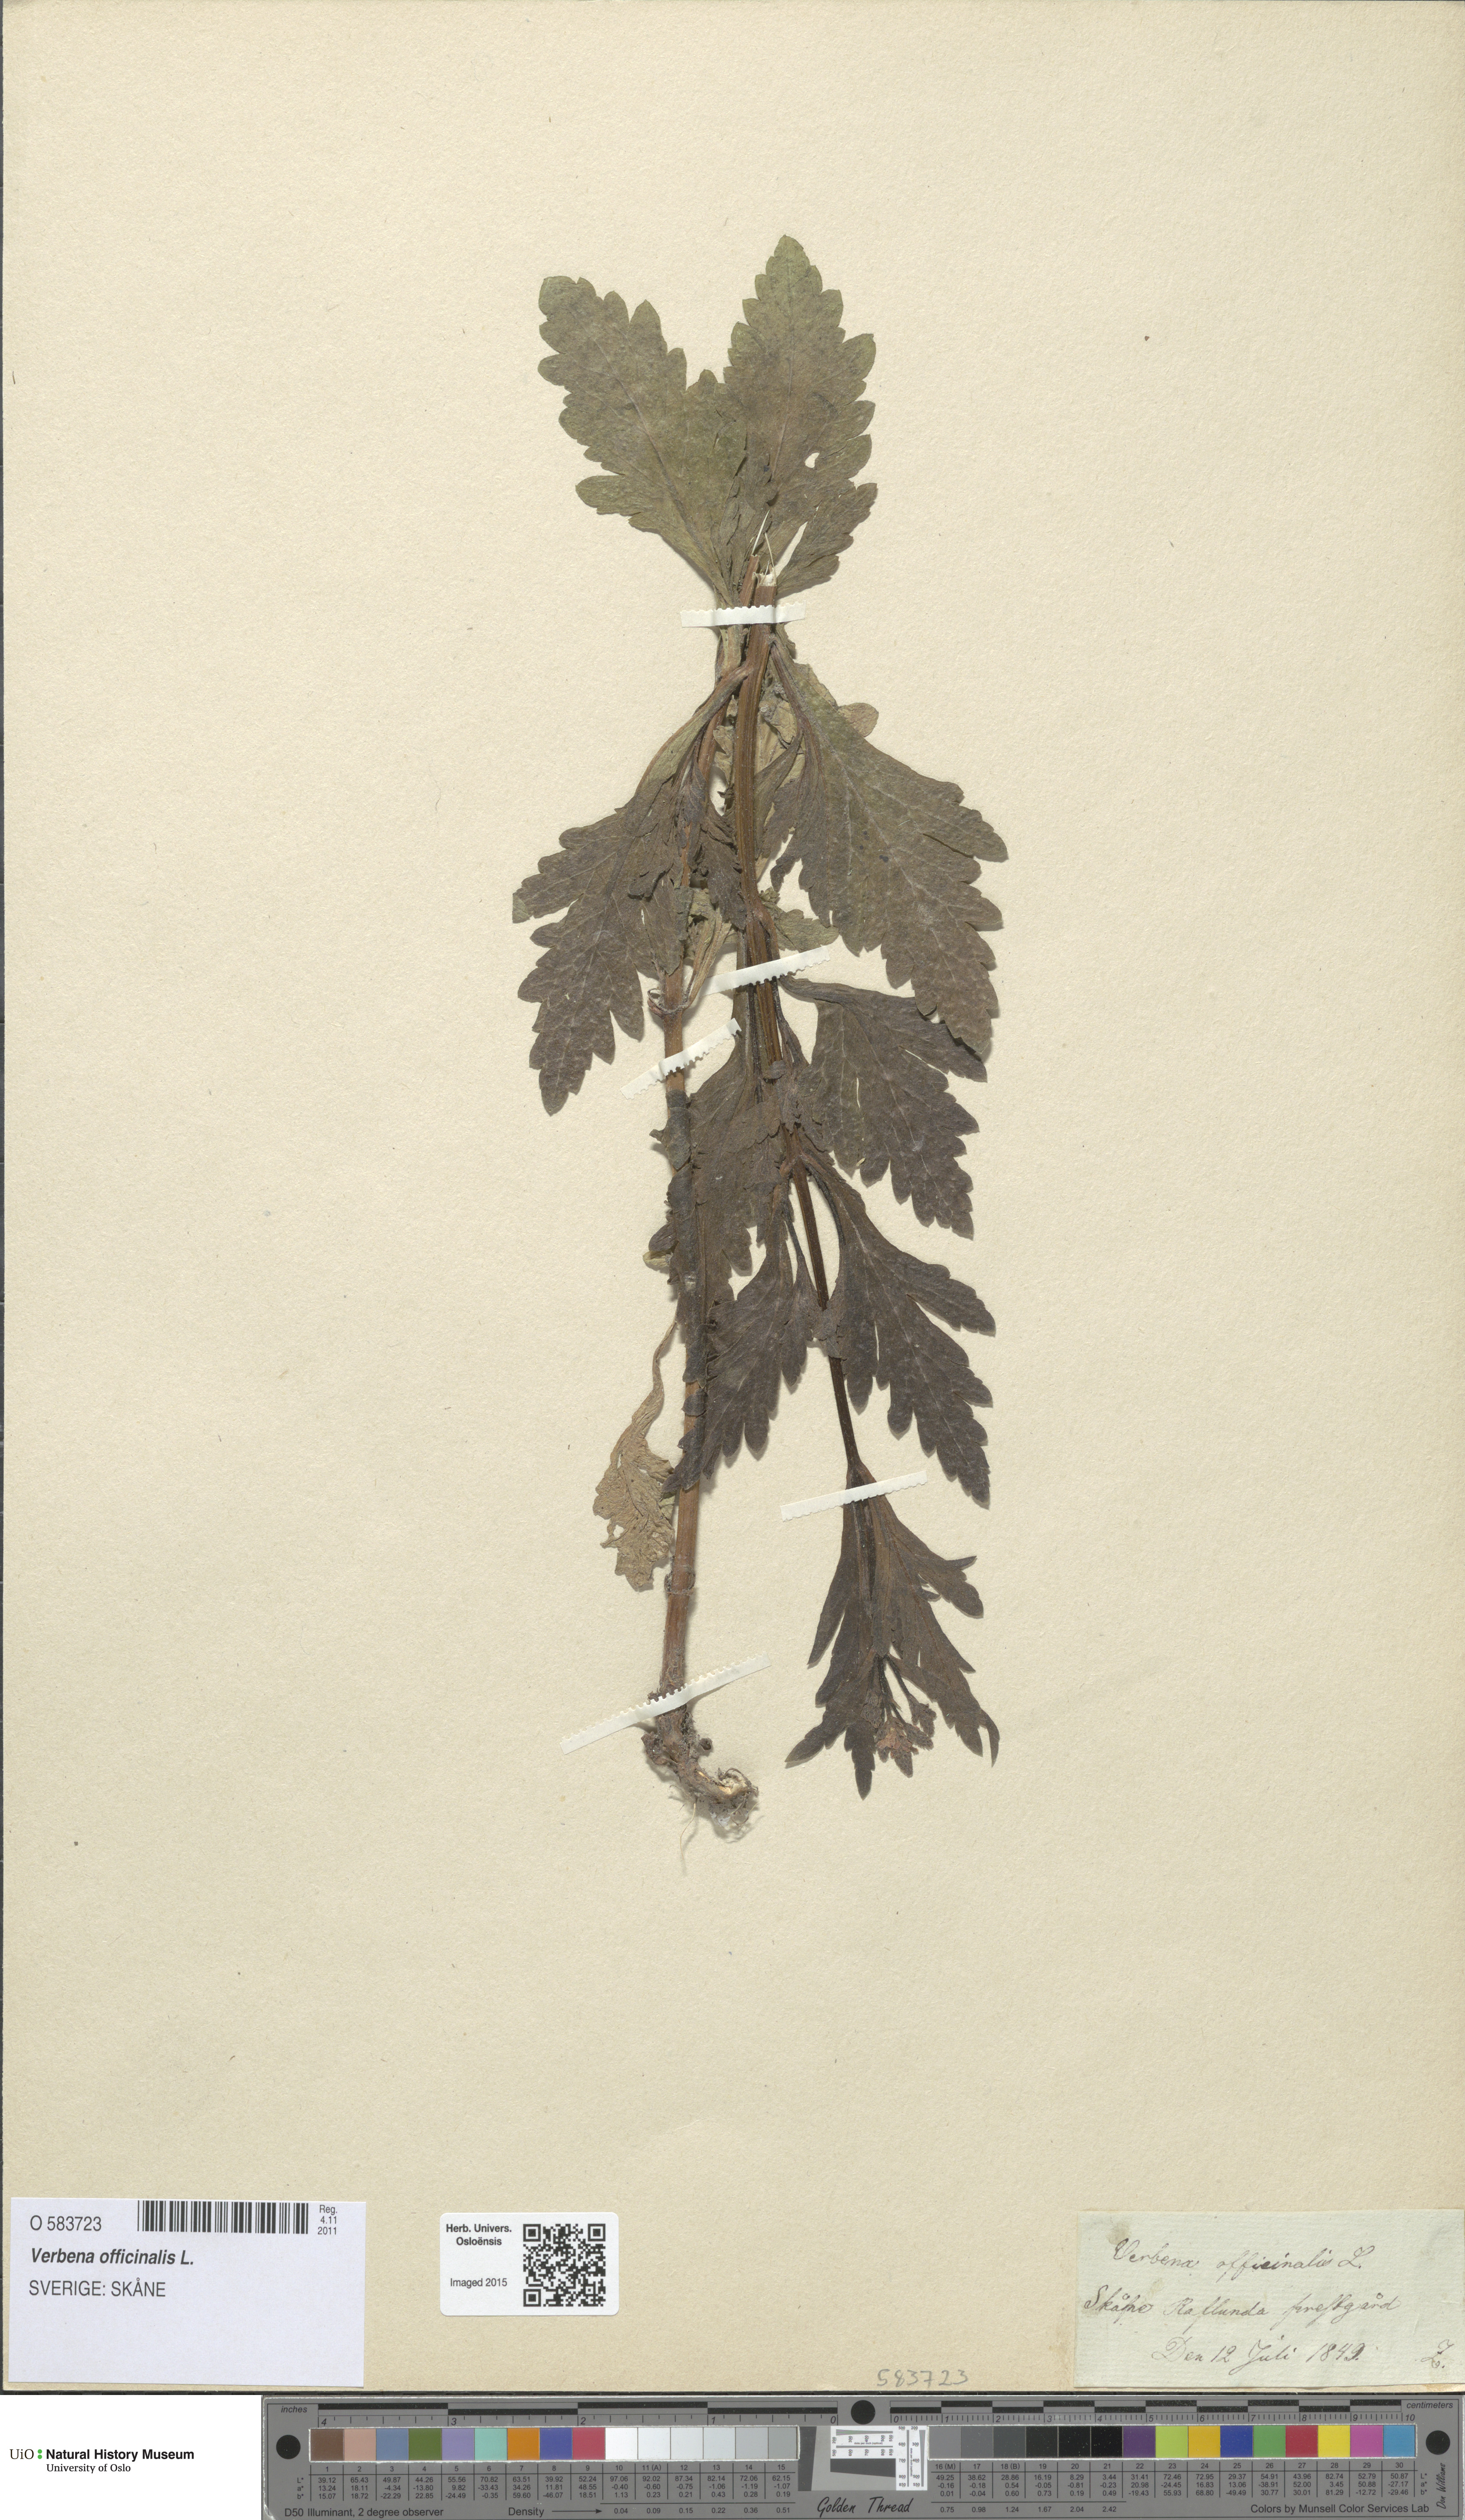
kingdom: Plantae
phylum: Tracheophyta
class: Magnoliopsida
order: Lamiales
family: Verbenaceae
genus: Verbena
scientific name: Verbena officinalis
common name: Vervain
